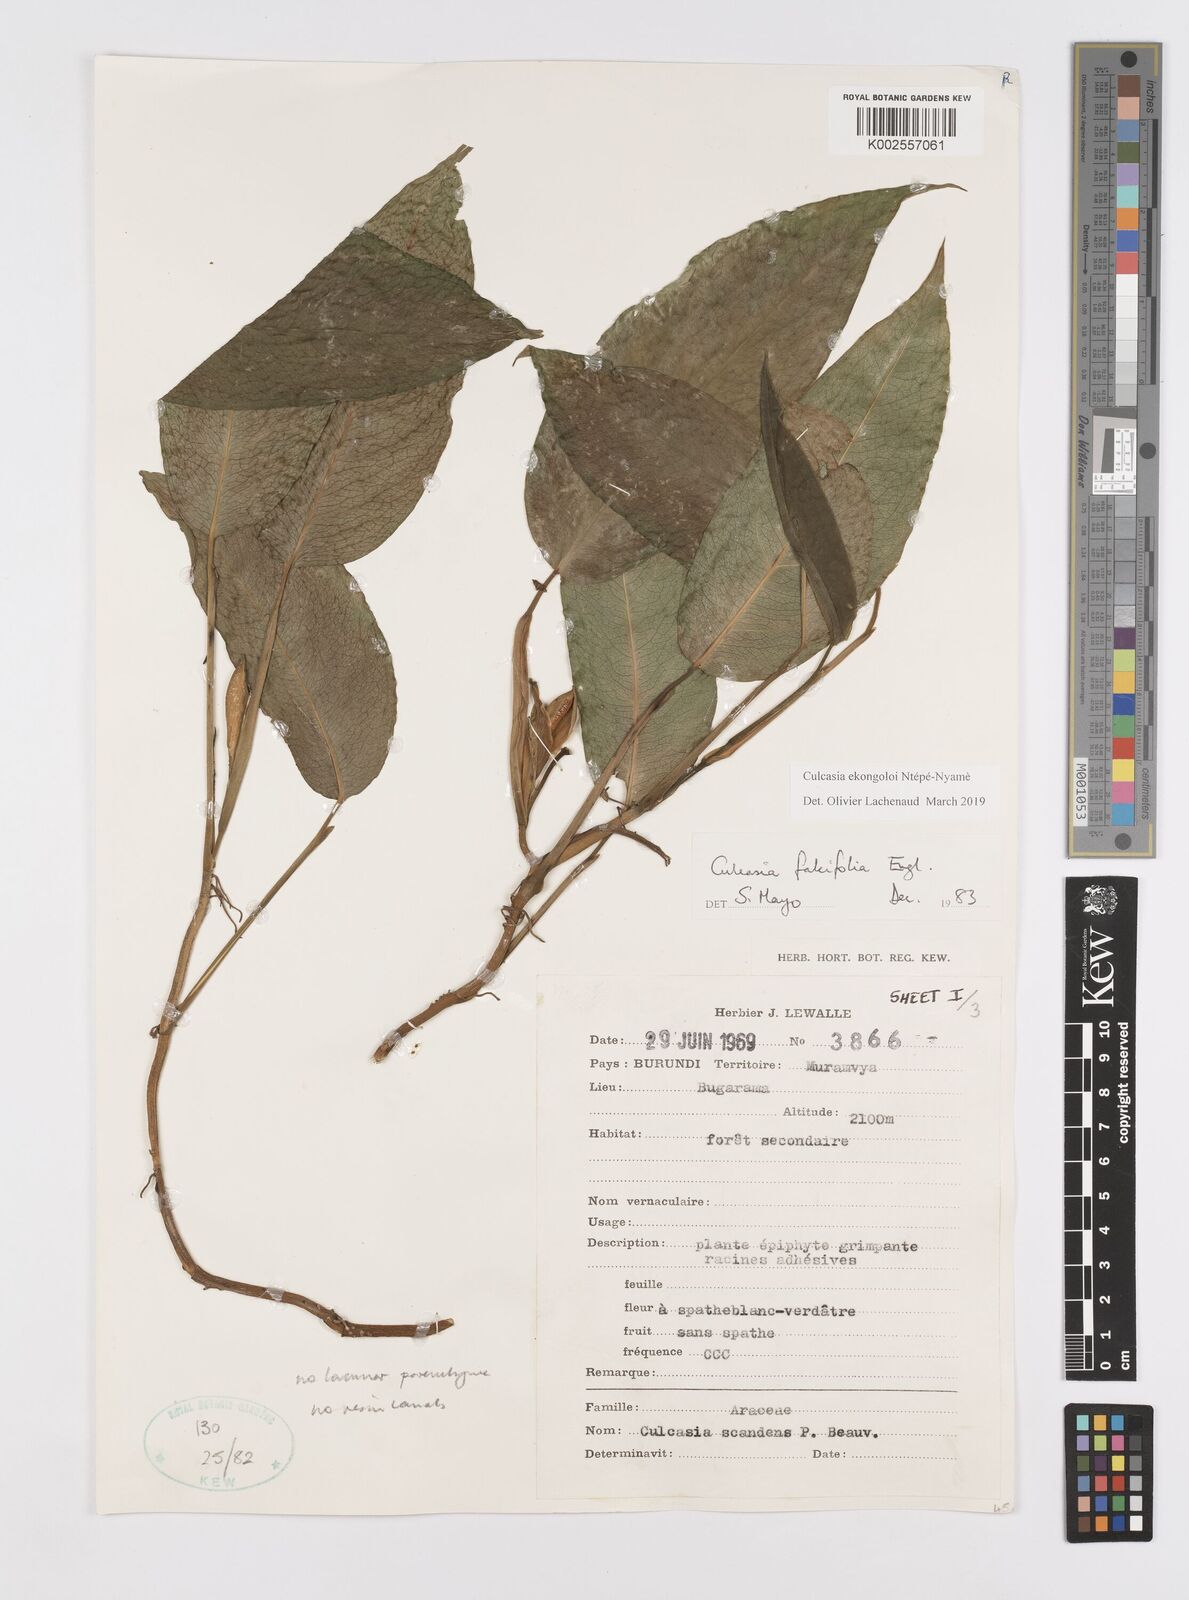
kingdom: Plantae
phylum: Tracheophyta
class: Liliopsida
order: Alismatales
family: Araceae
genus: Culcasia
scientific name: Culcasia ekongoloi
